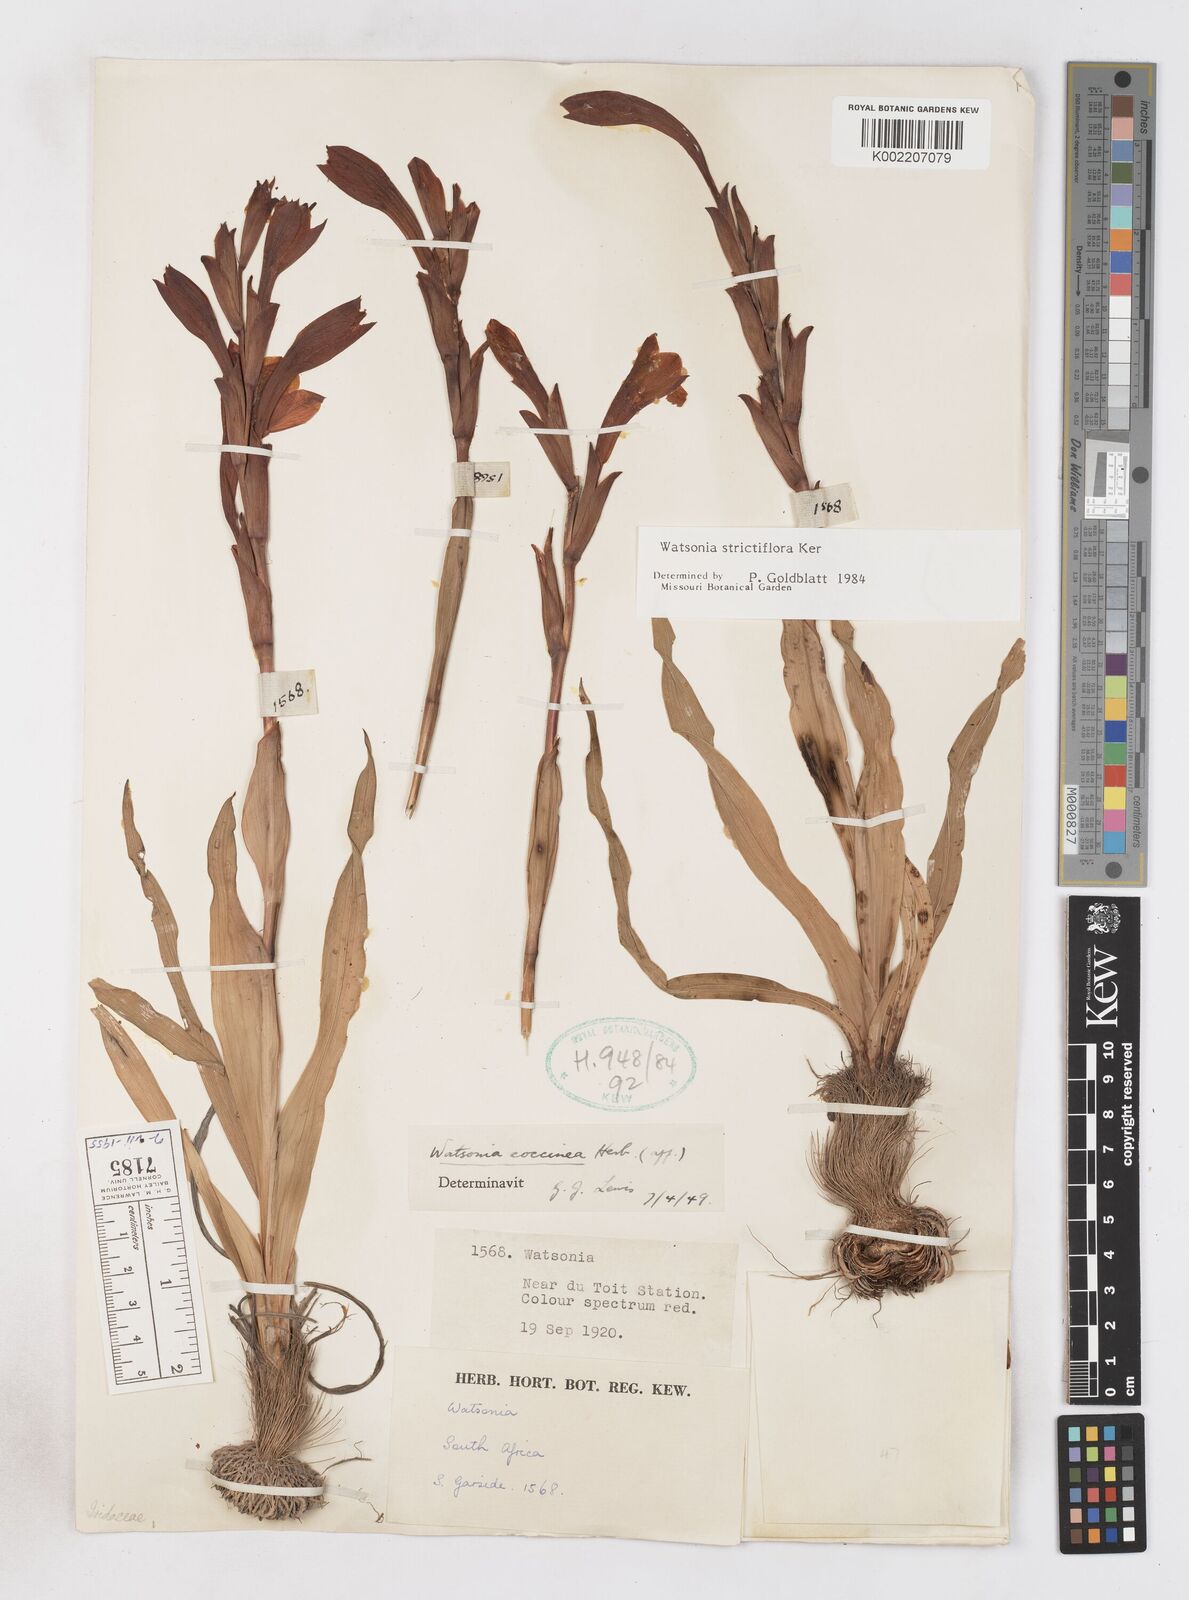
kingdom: Plantae
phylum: Tracheophyta
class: Liliopsida
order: Asparagales
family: Iridaceae
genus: Watsonia
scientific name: Watsonia strictiflora
